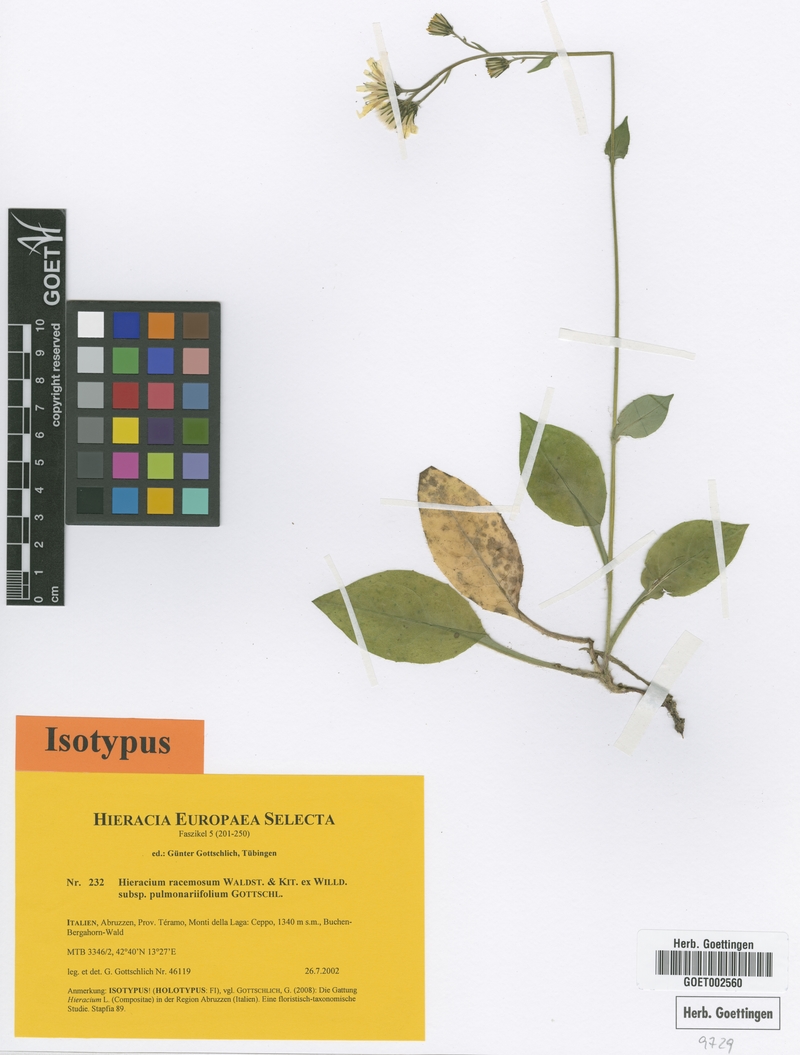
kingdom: Plantae
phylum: Tracheophyta
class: Magnoliopsida
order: Asterales
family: Asteraceae
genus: Hieracium
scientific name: Hieracium racemosum
